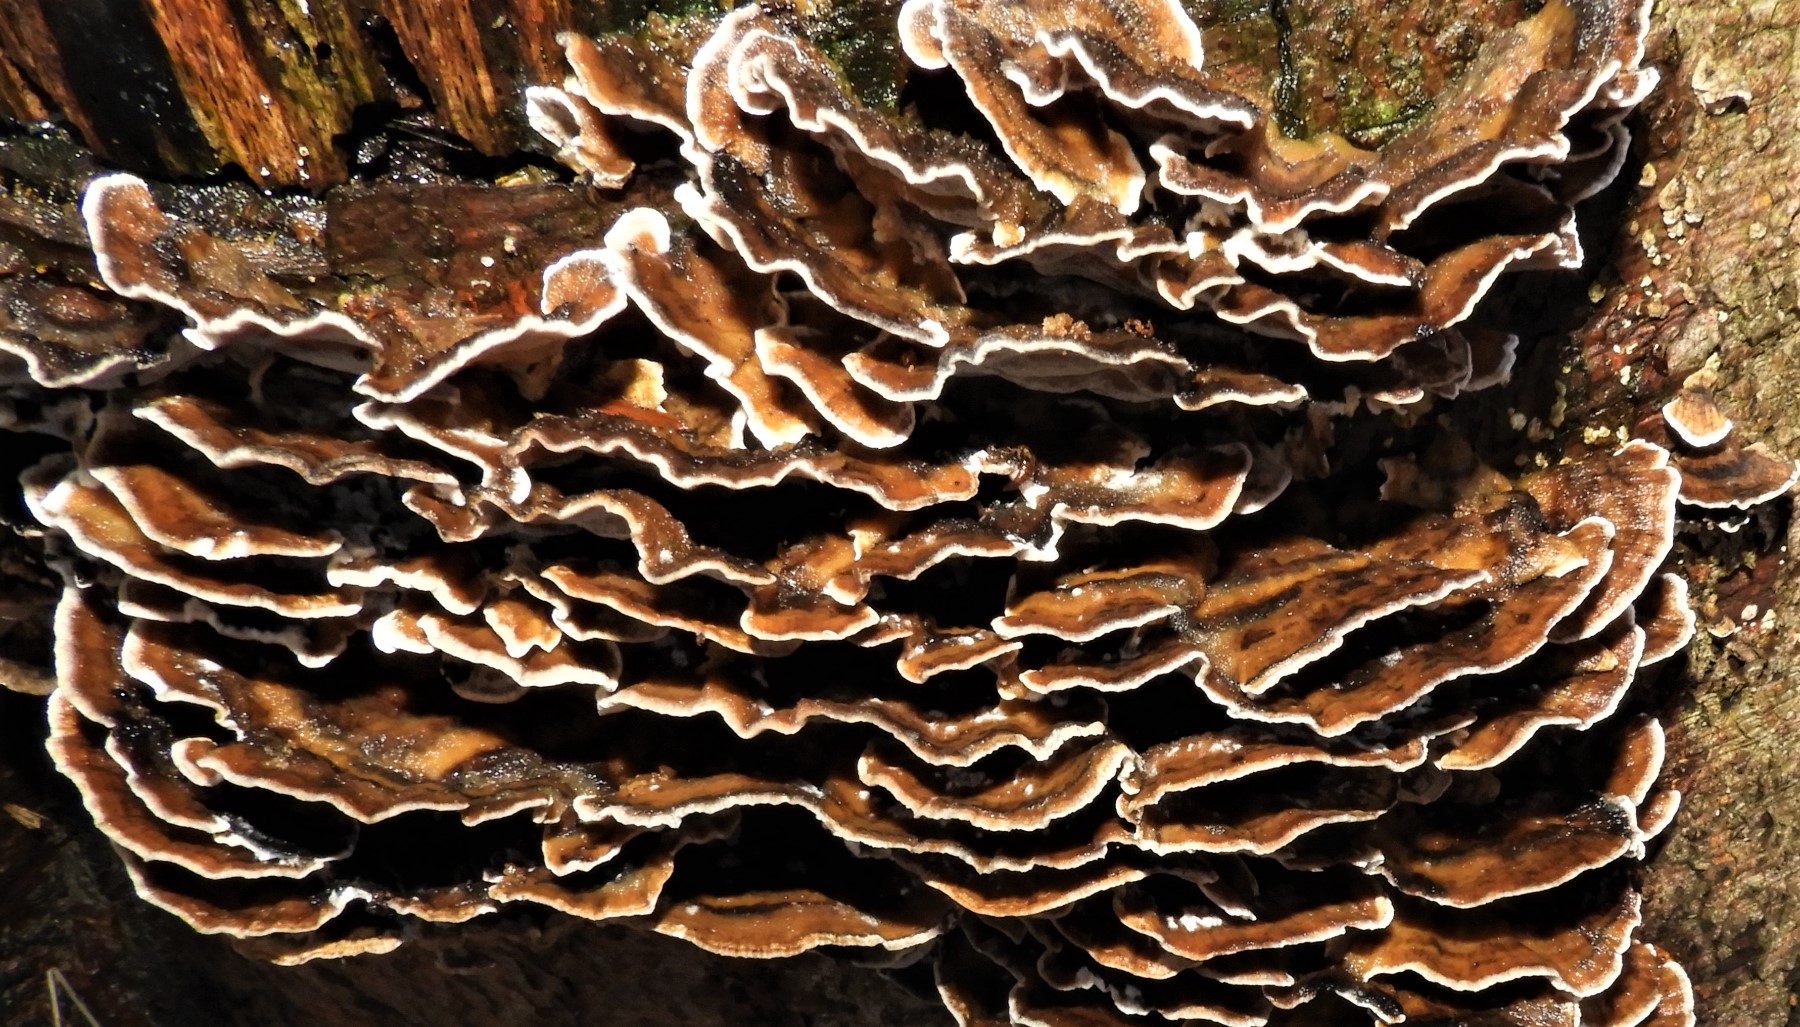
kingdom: Fungi
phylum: Basidiomycota
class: Agaricomycetes
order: Polyporales
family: Phanerochaetaceae
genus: Bjerkandera
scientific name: Bjerkandera adusta
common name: sveden sodporesvamp
